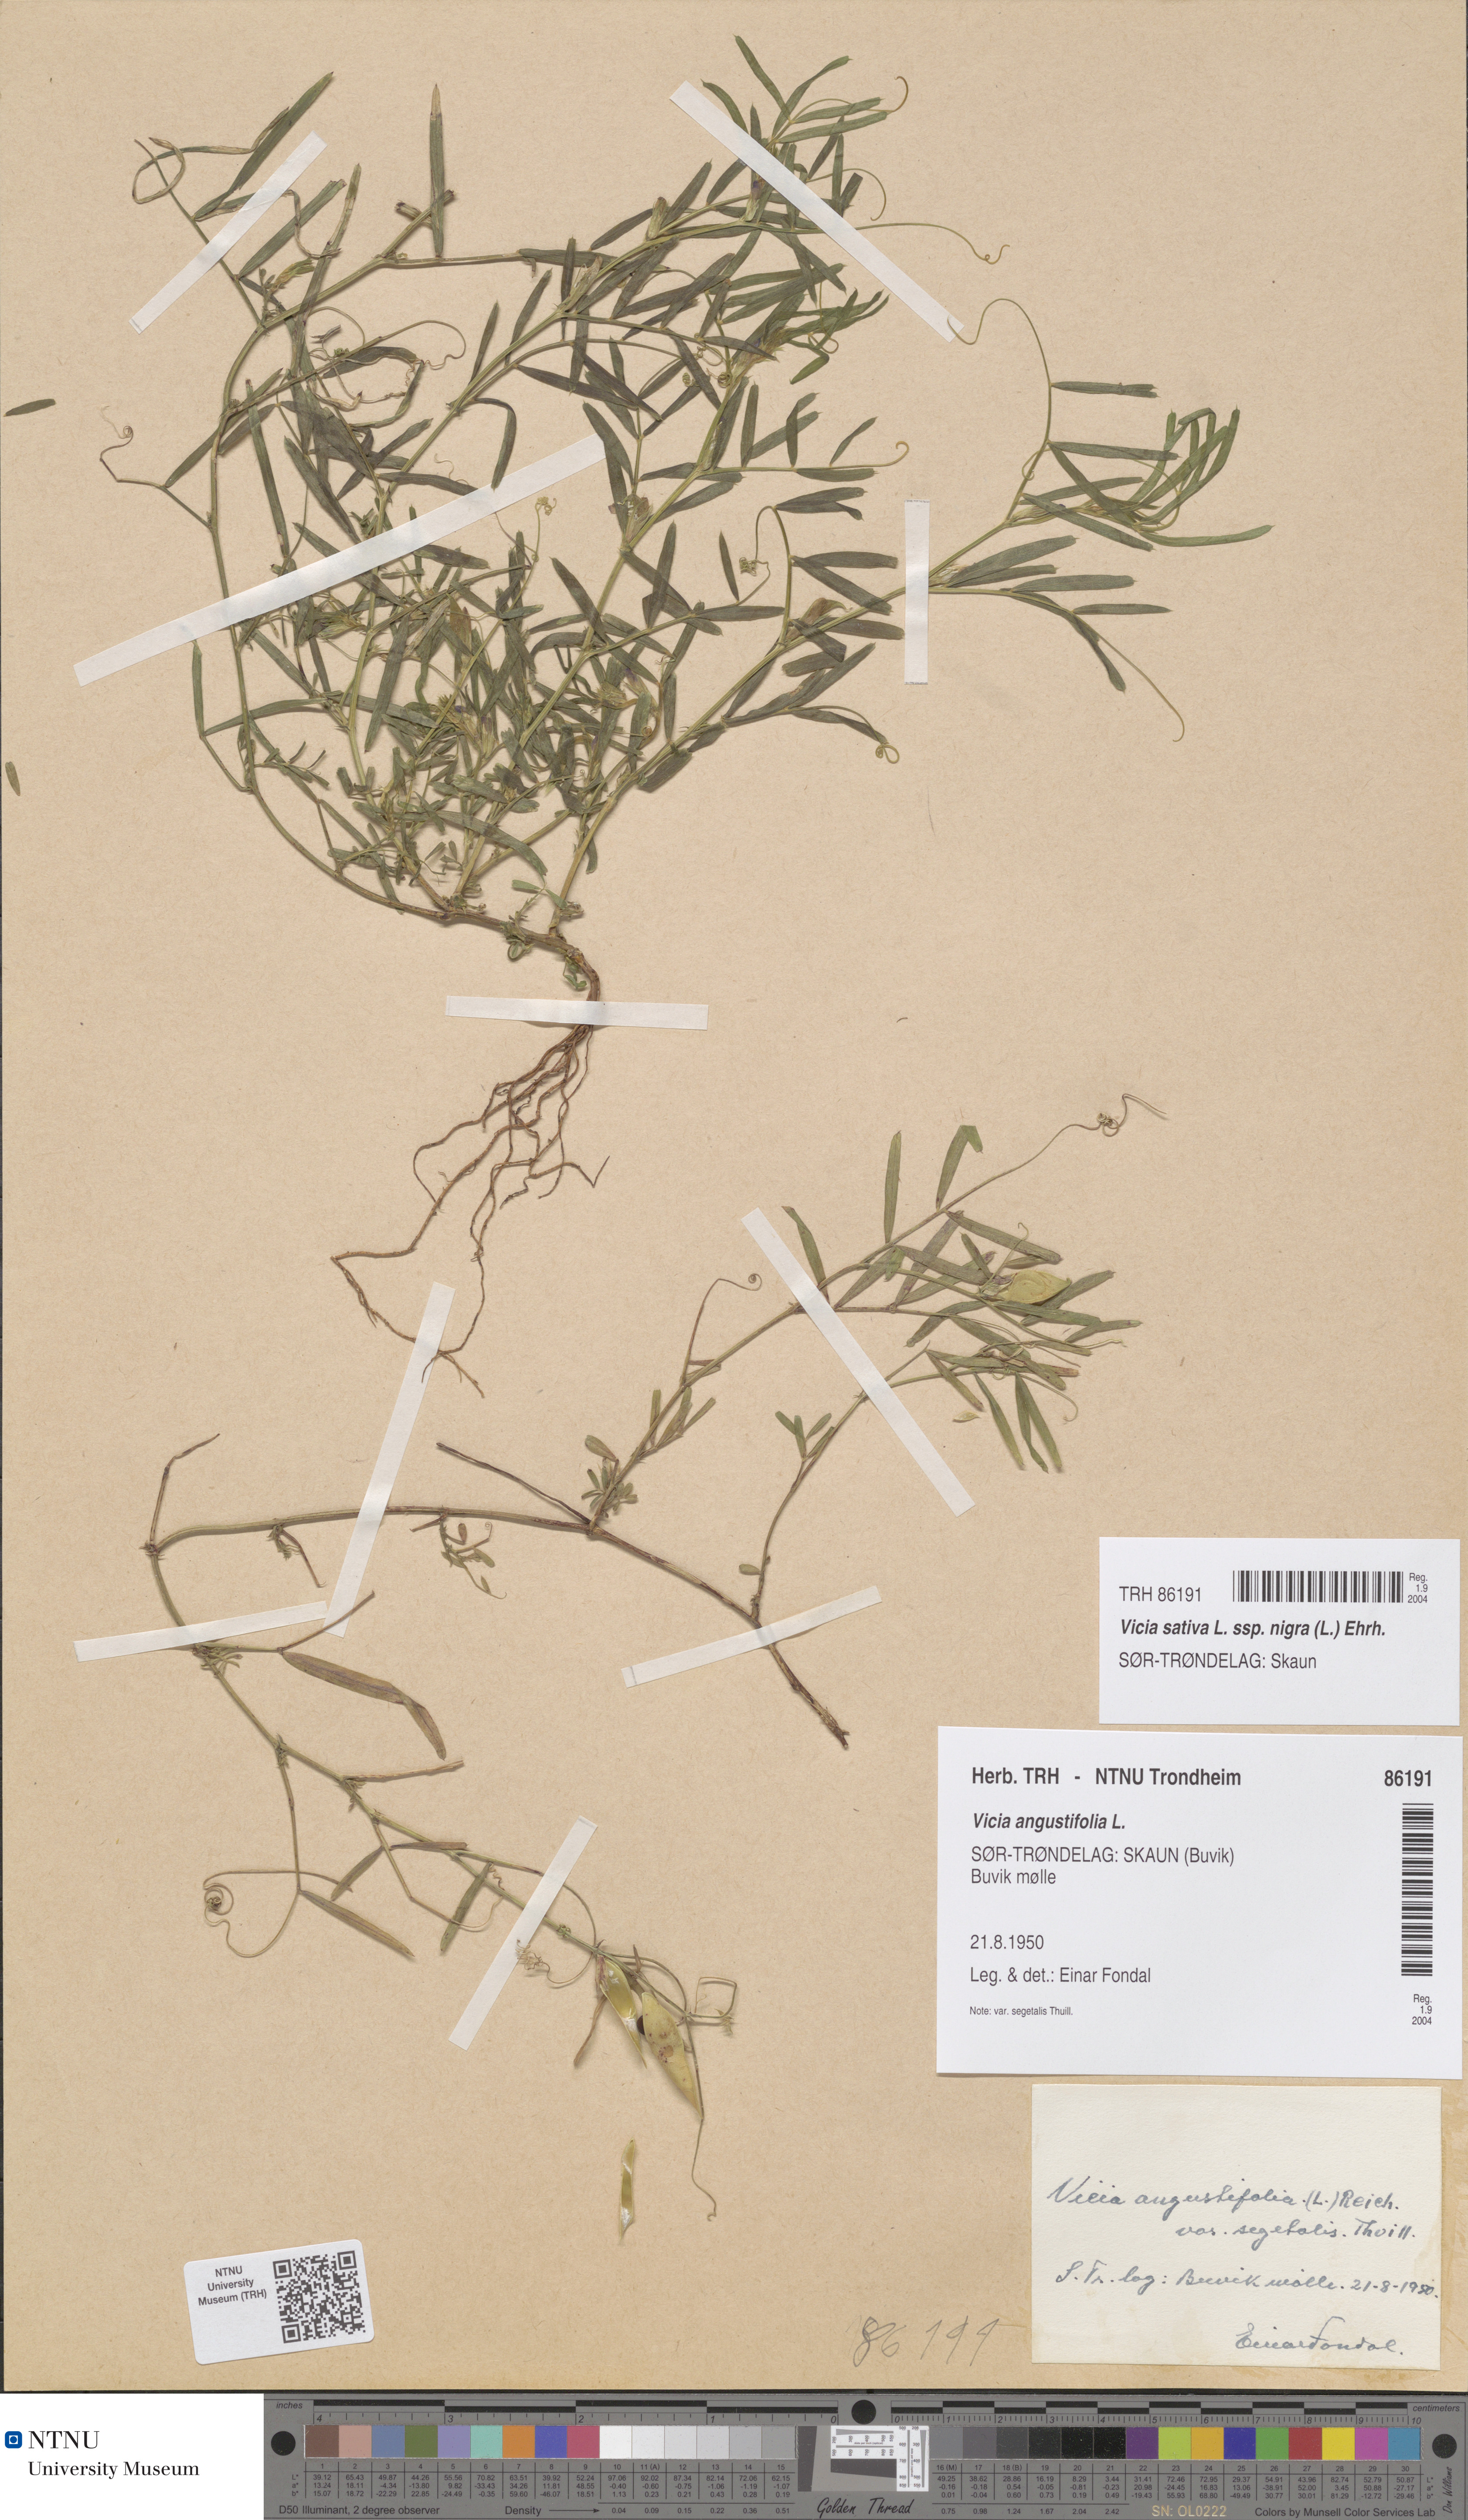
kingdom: Plantae
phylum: Tracheophyta
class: Magnoliopsida
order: Fabales
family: Fabaceae
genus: Vicia
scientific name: Vicia sativa
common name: Garden vetch
